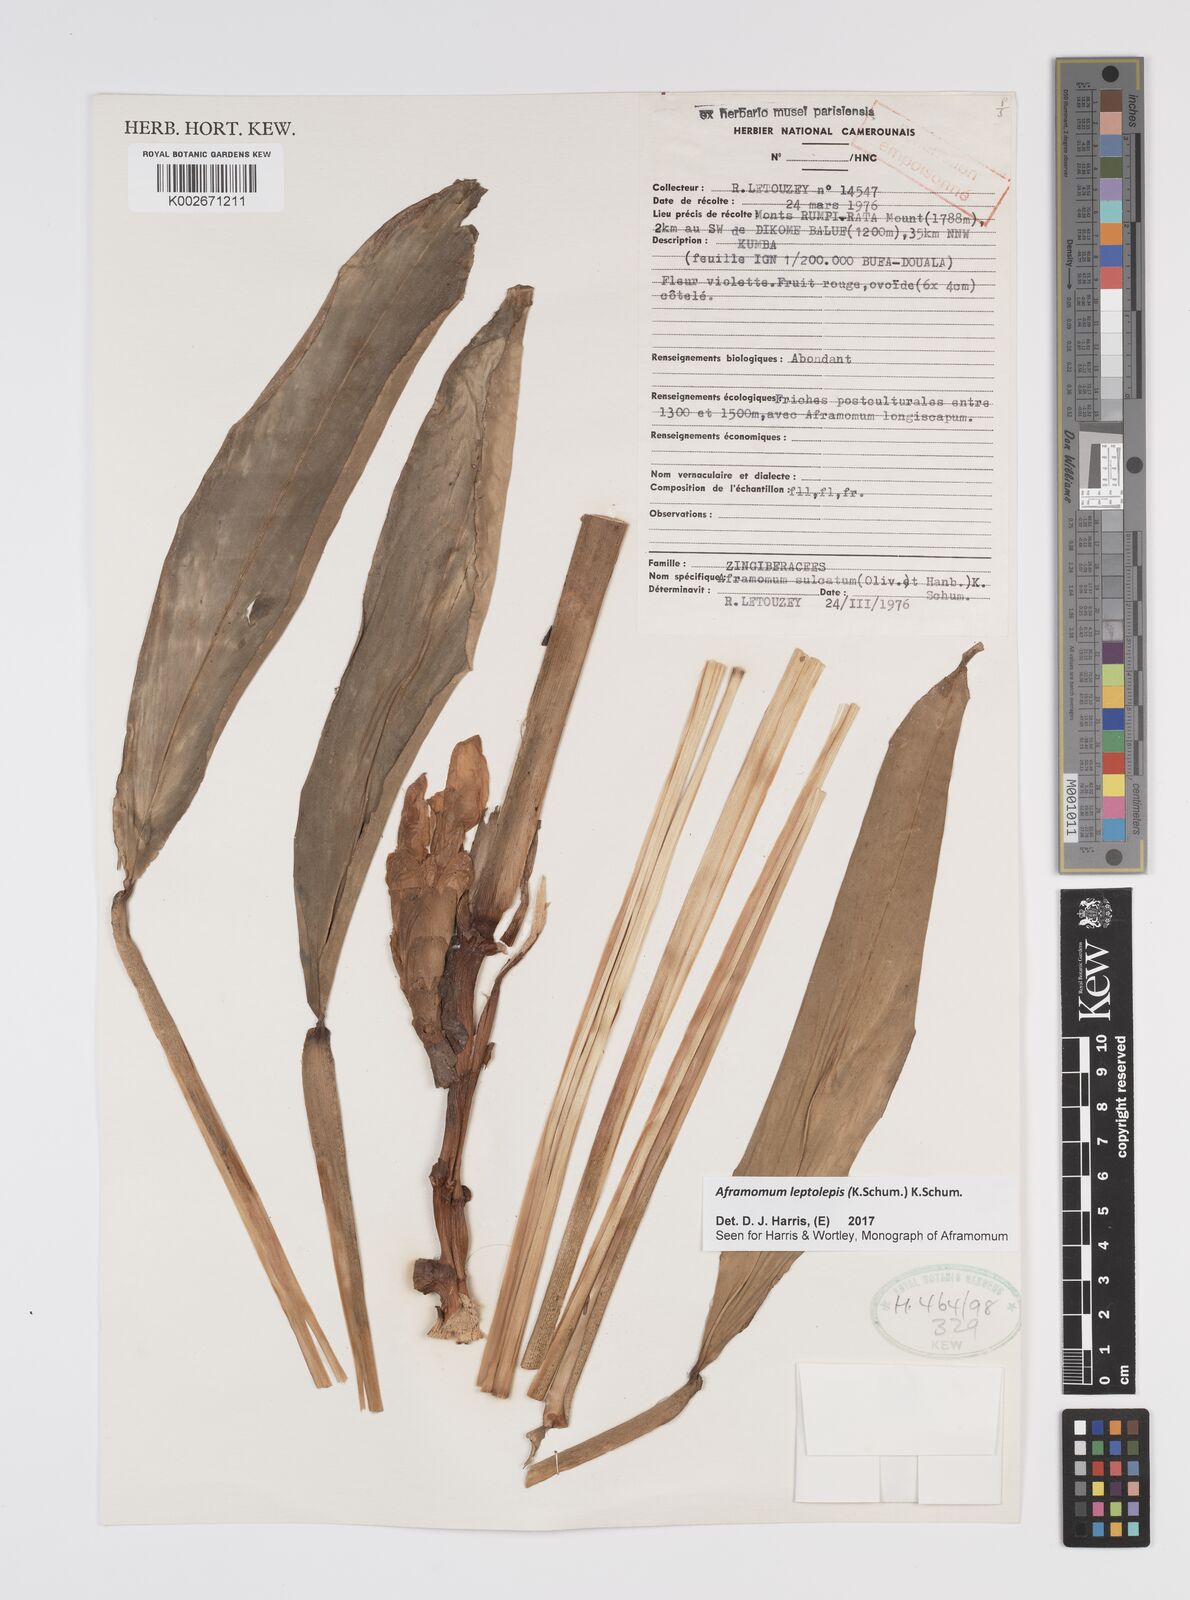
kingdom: Plantae
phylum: Tracheophyta
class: Liliopsida
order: Zingiberales
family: Zingiberaceae
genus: Aframomum
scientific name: Aframomum leptolepis
